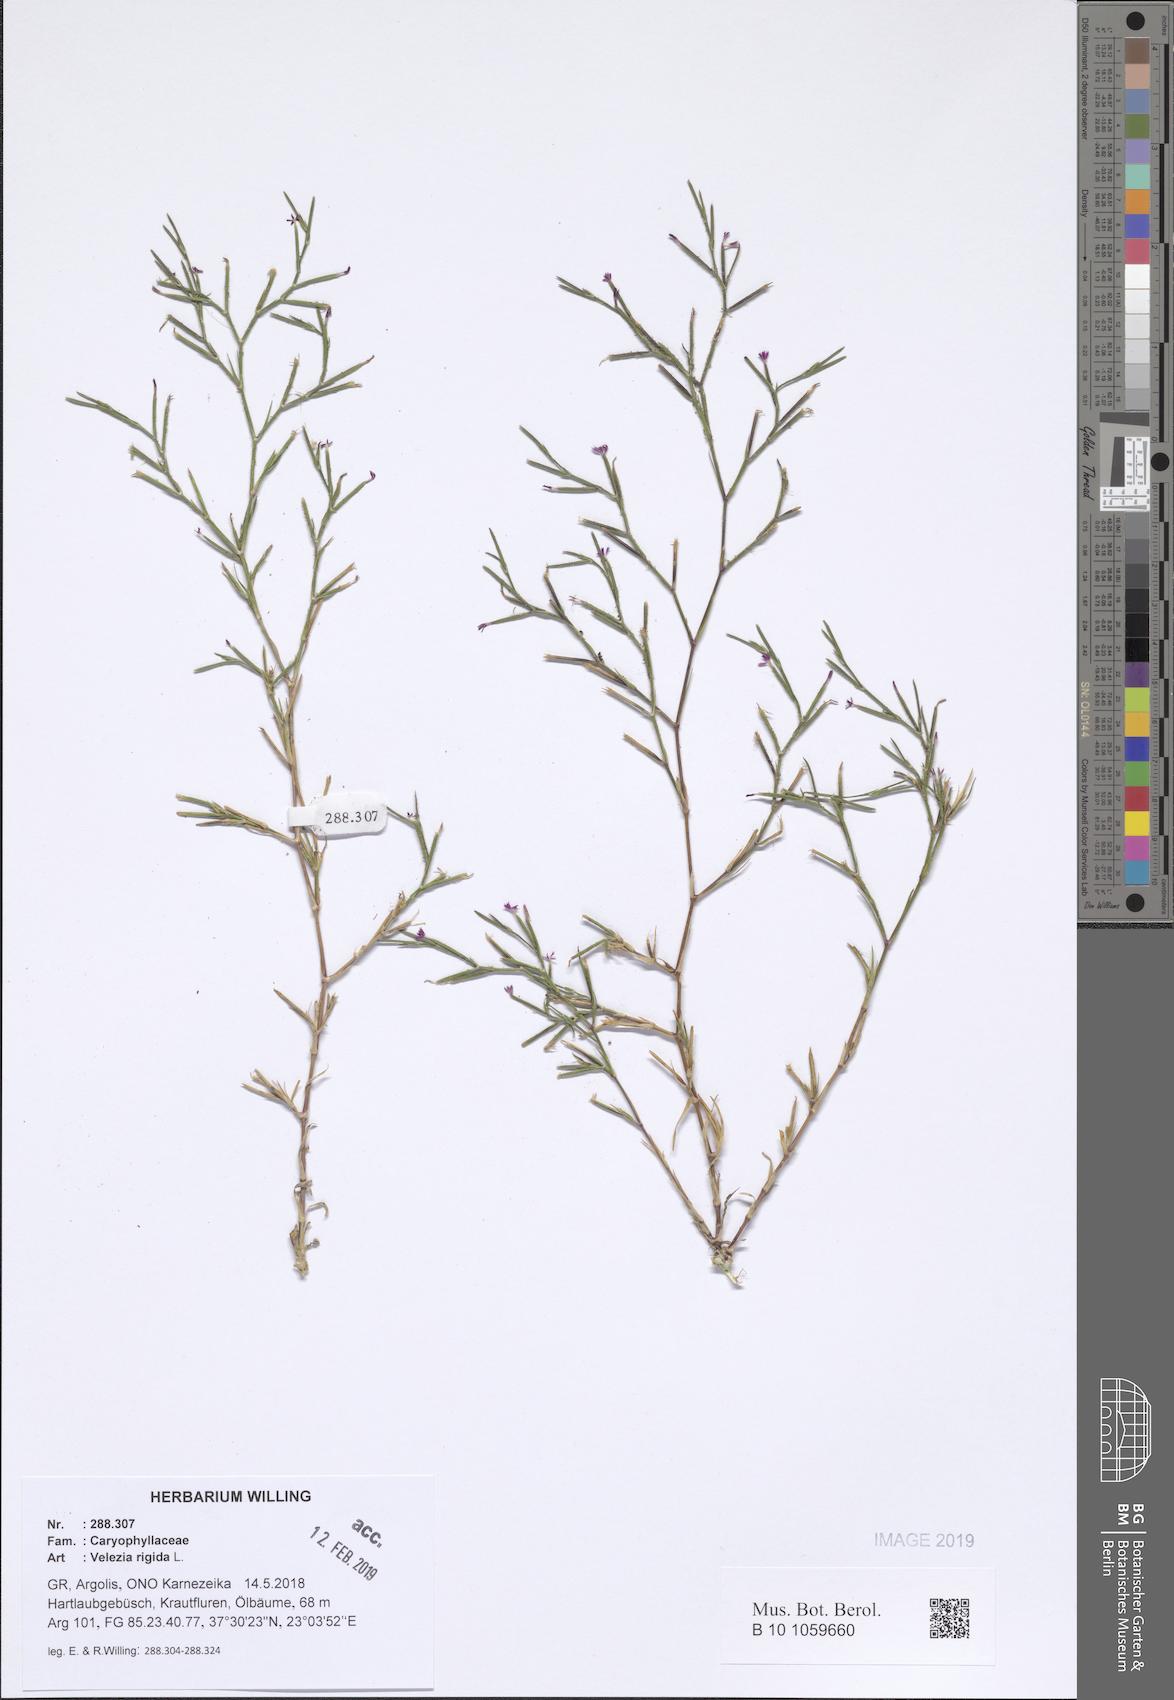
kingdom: Plantae
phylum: Tracheophyta
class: Magnoliopsida
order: Caryophyllales
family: Caryophyllaceae
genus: Dianthus
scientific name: Dianthus nudiflorus
